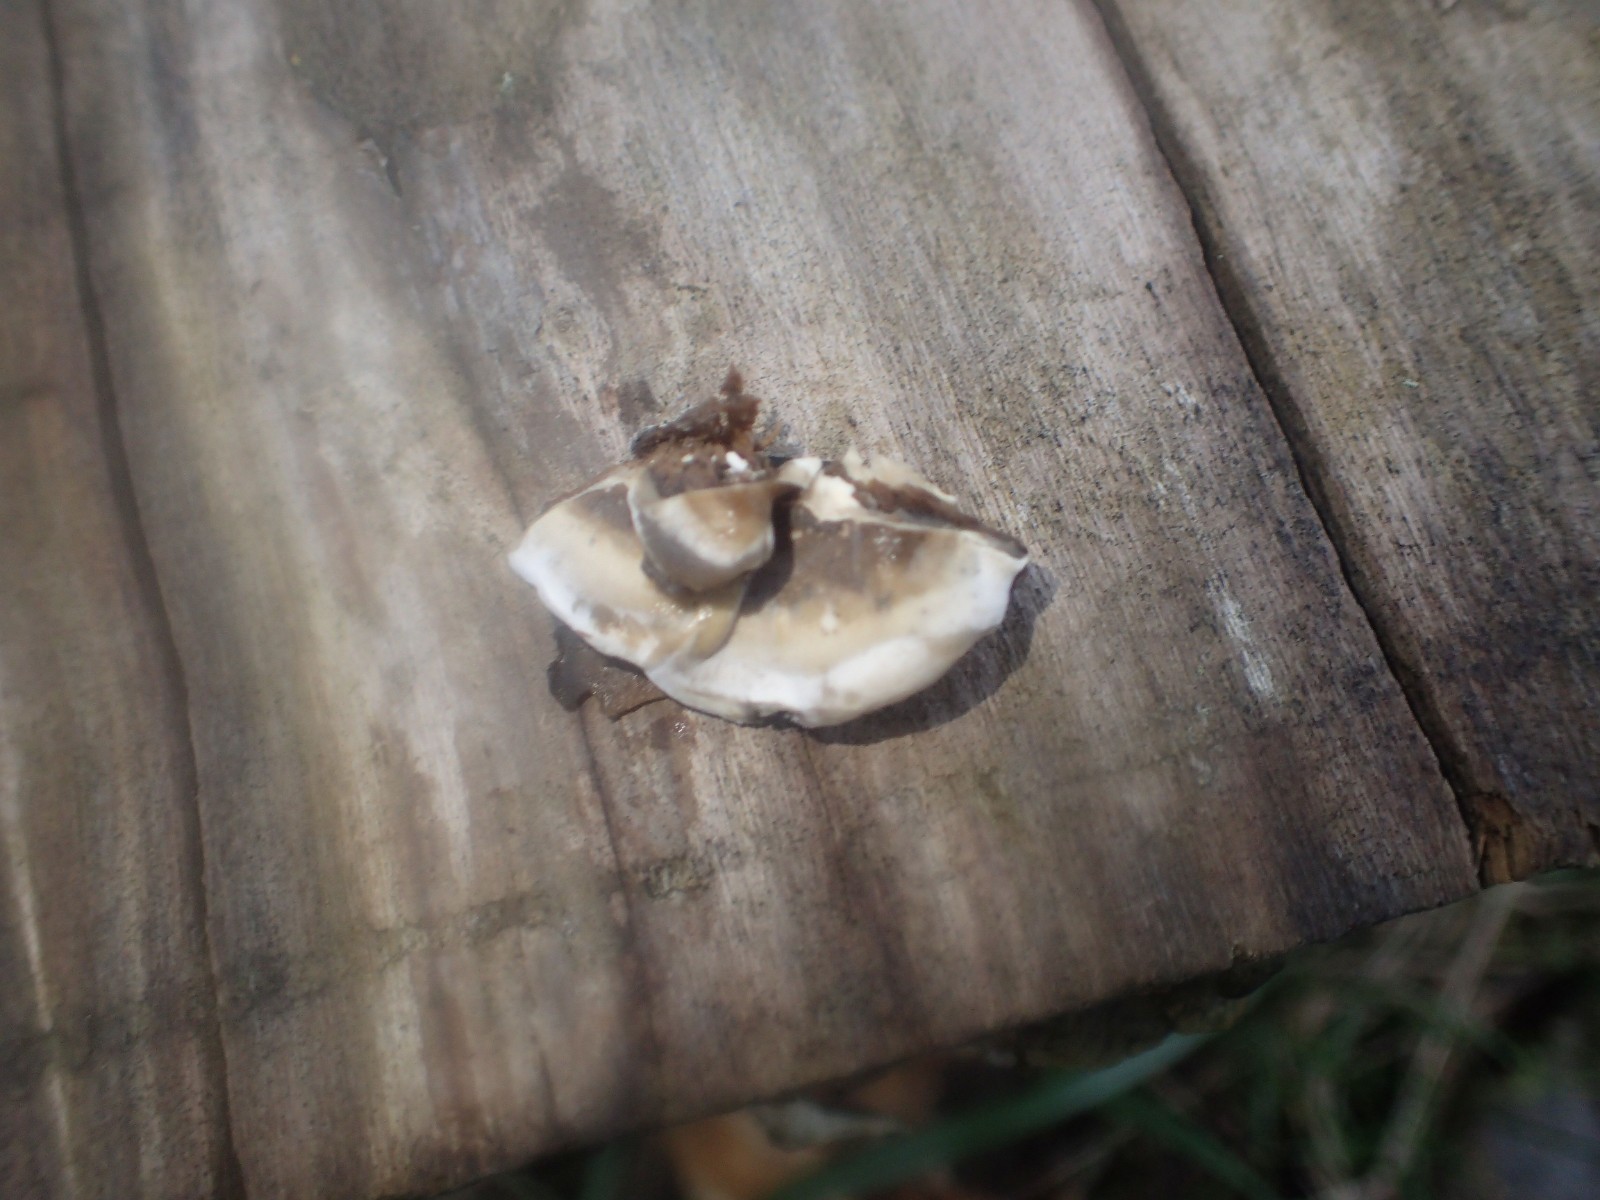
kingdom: Fungi
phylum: Basidiomycota
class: Agaricomycetes
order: Polyporales
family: Phanerochaetaceae
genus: Bjerkandera
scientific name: Bjerkandera adusta
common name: sveden sodporesvamp
